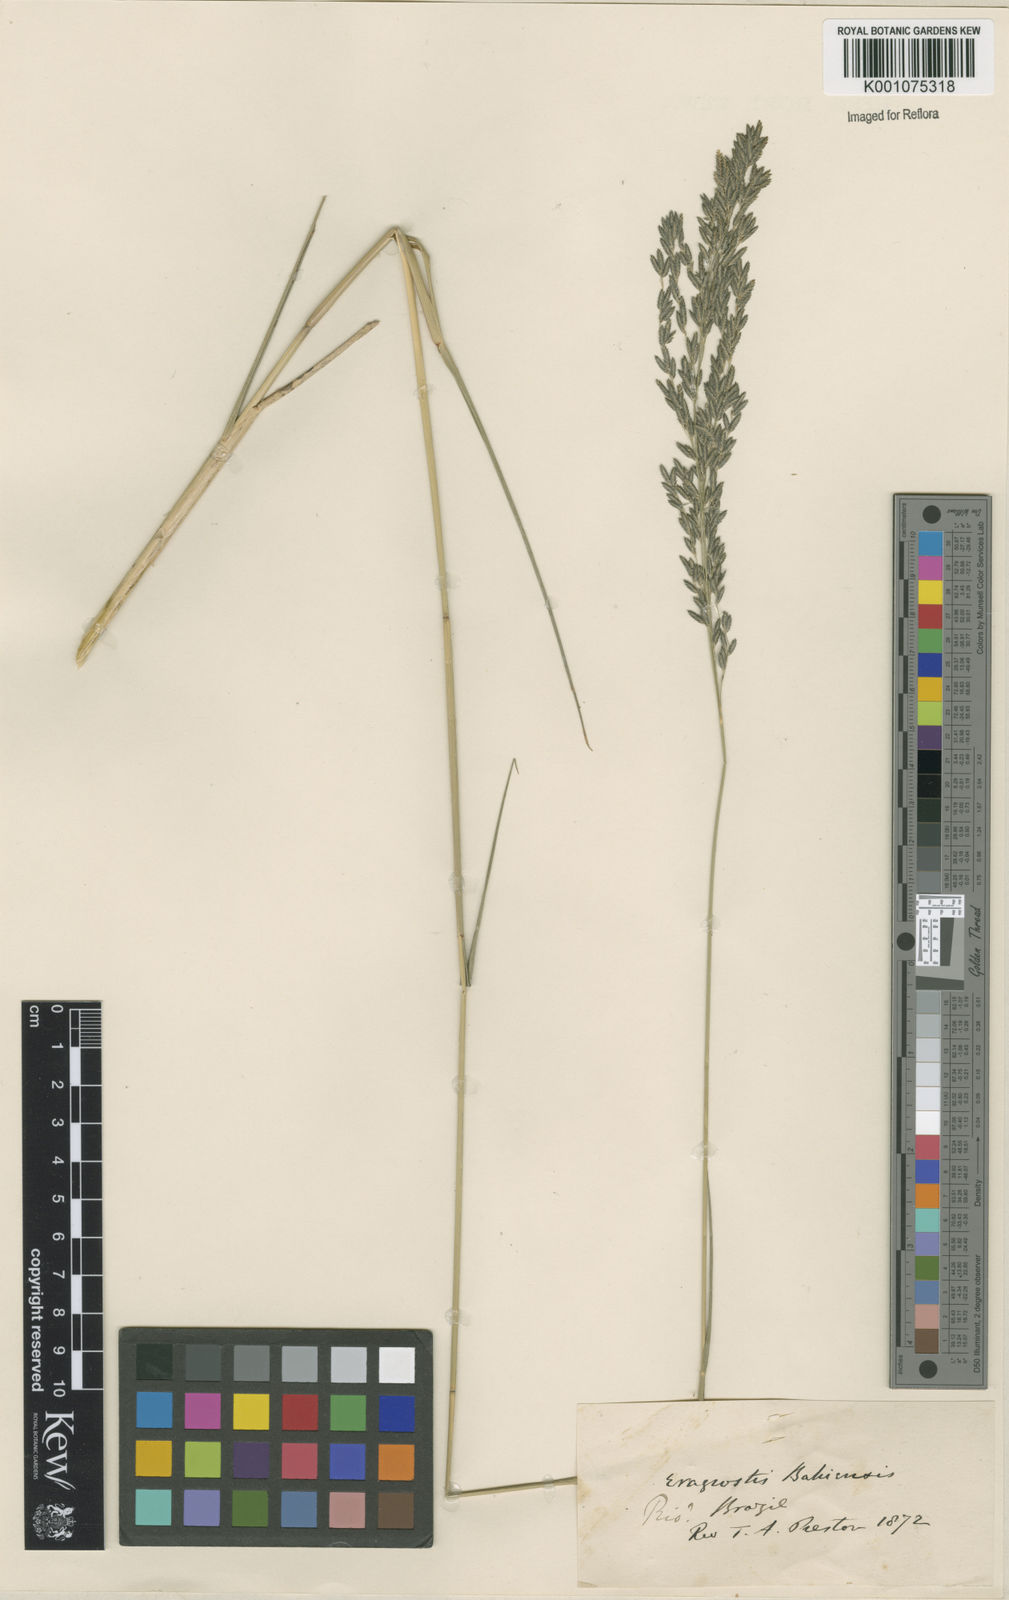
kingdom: Plantae
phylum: Tracheophyta
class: Liliopsida
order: Poales
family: Poaceae
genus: Eragrostis
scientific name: Eragrostis bahiensis
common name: Bahia lovegrass
